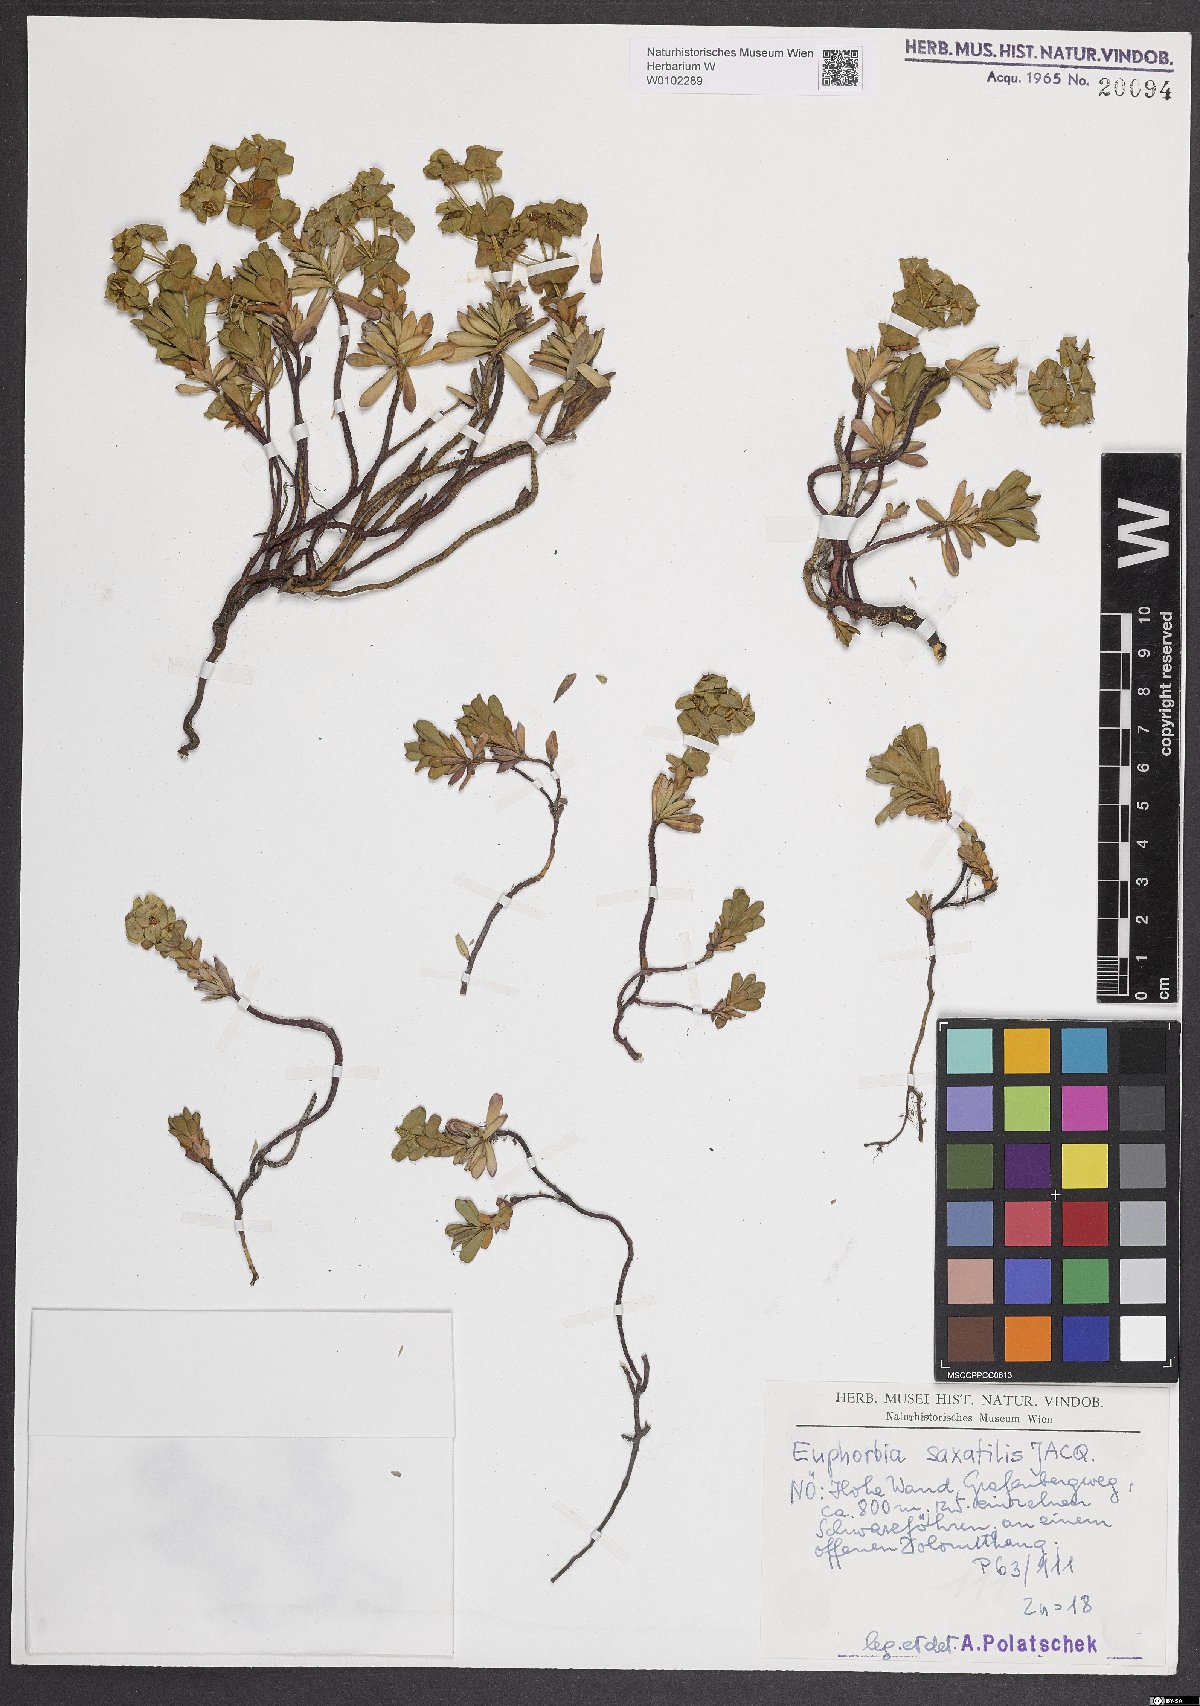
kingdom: Plantae
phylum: Tracheophyta
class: Magnoliopsida
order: Malpighiales
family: Euphorbiaceae
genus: Euphorbia
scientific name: Euphorbia saxatilis
